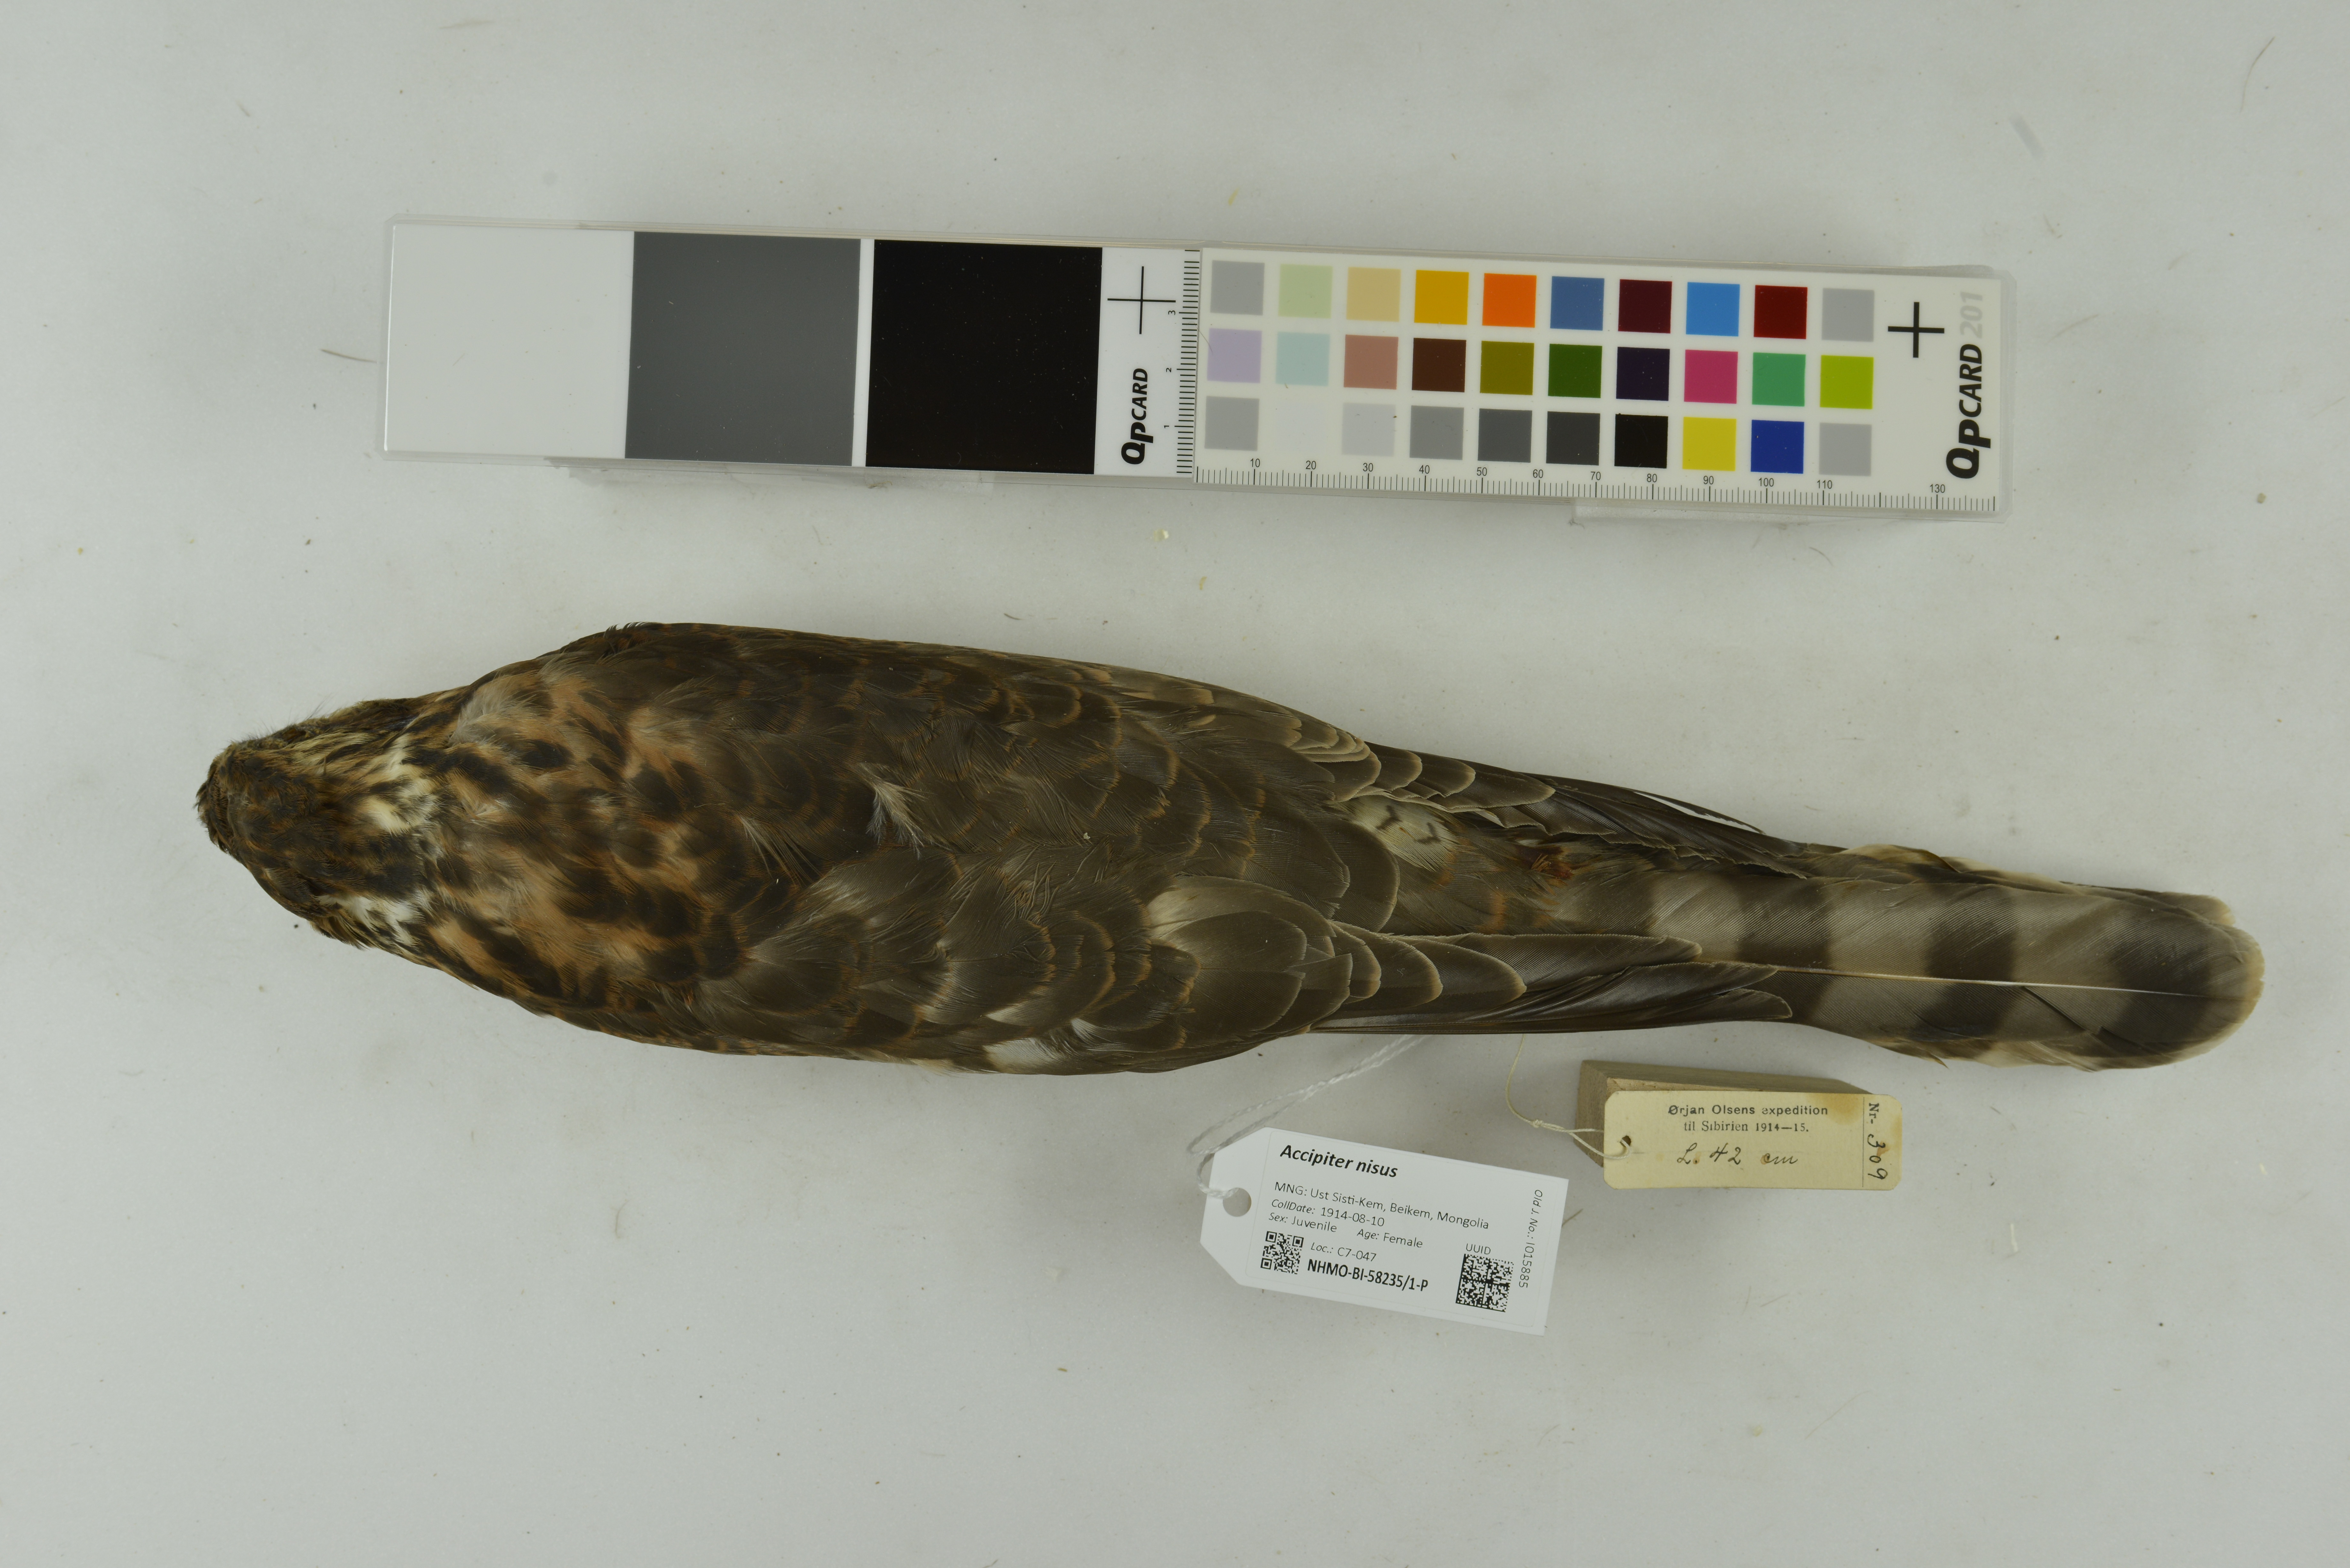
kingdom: Animalia
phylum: Chordata
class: Aves
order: Accipitriformes
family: Accipitridae
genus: Accipiter
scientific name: Accipiter nisus
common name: Eurasian sparrowhawk
